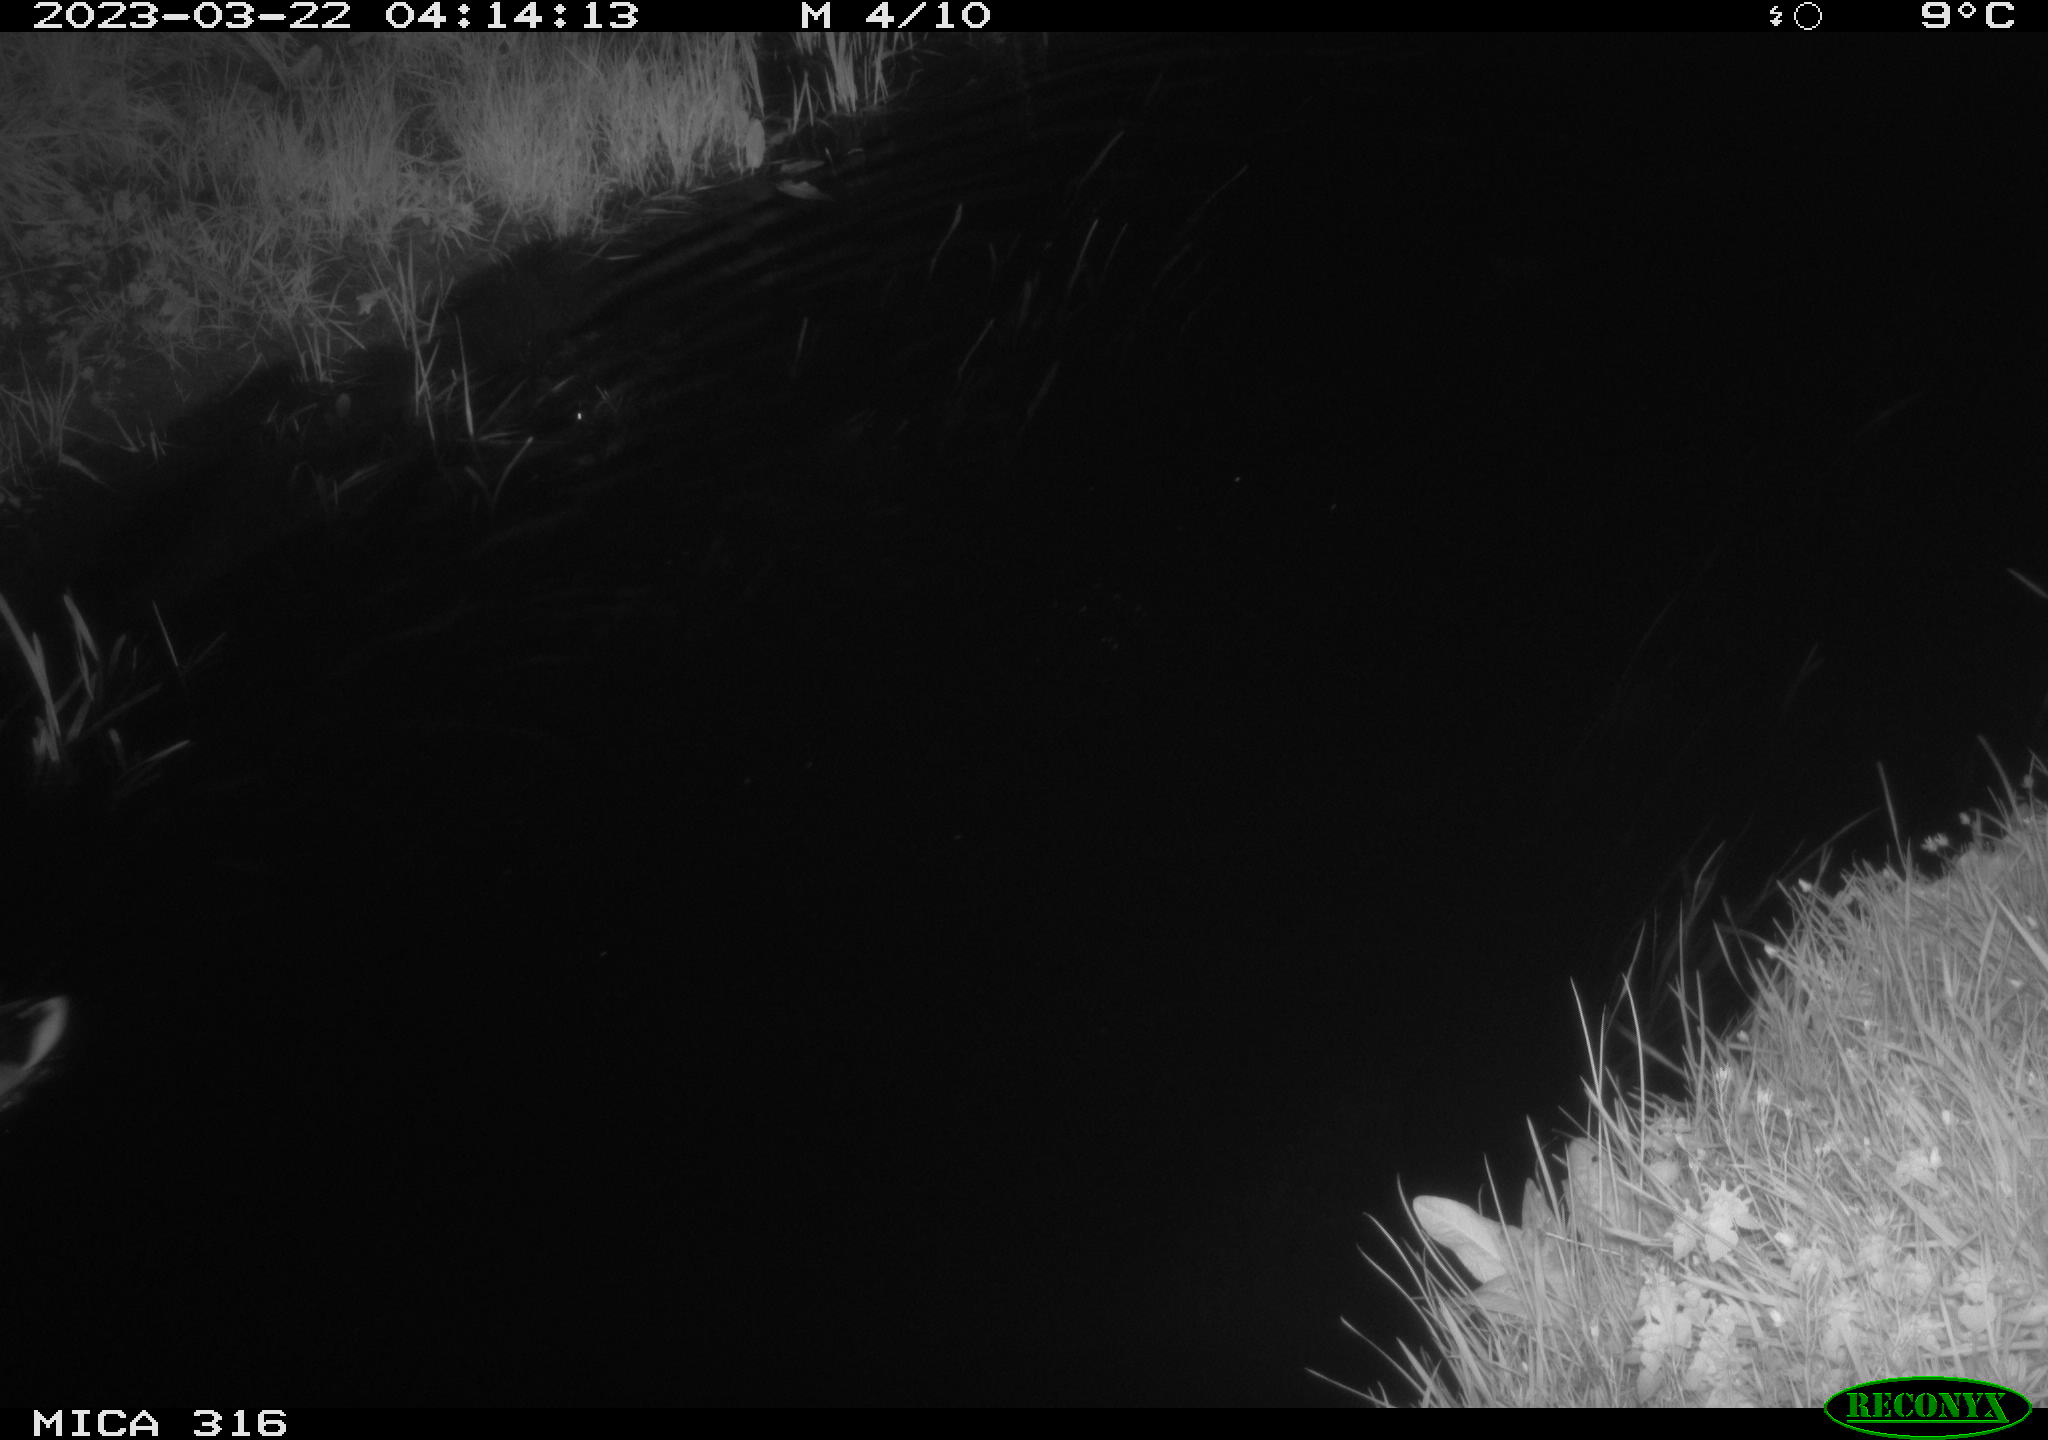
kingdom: Animalia
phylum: Chordata
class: Aves
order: Anseriformes
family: Anatidae
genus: Anas
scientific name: Anas
